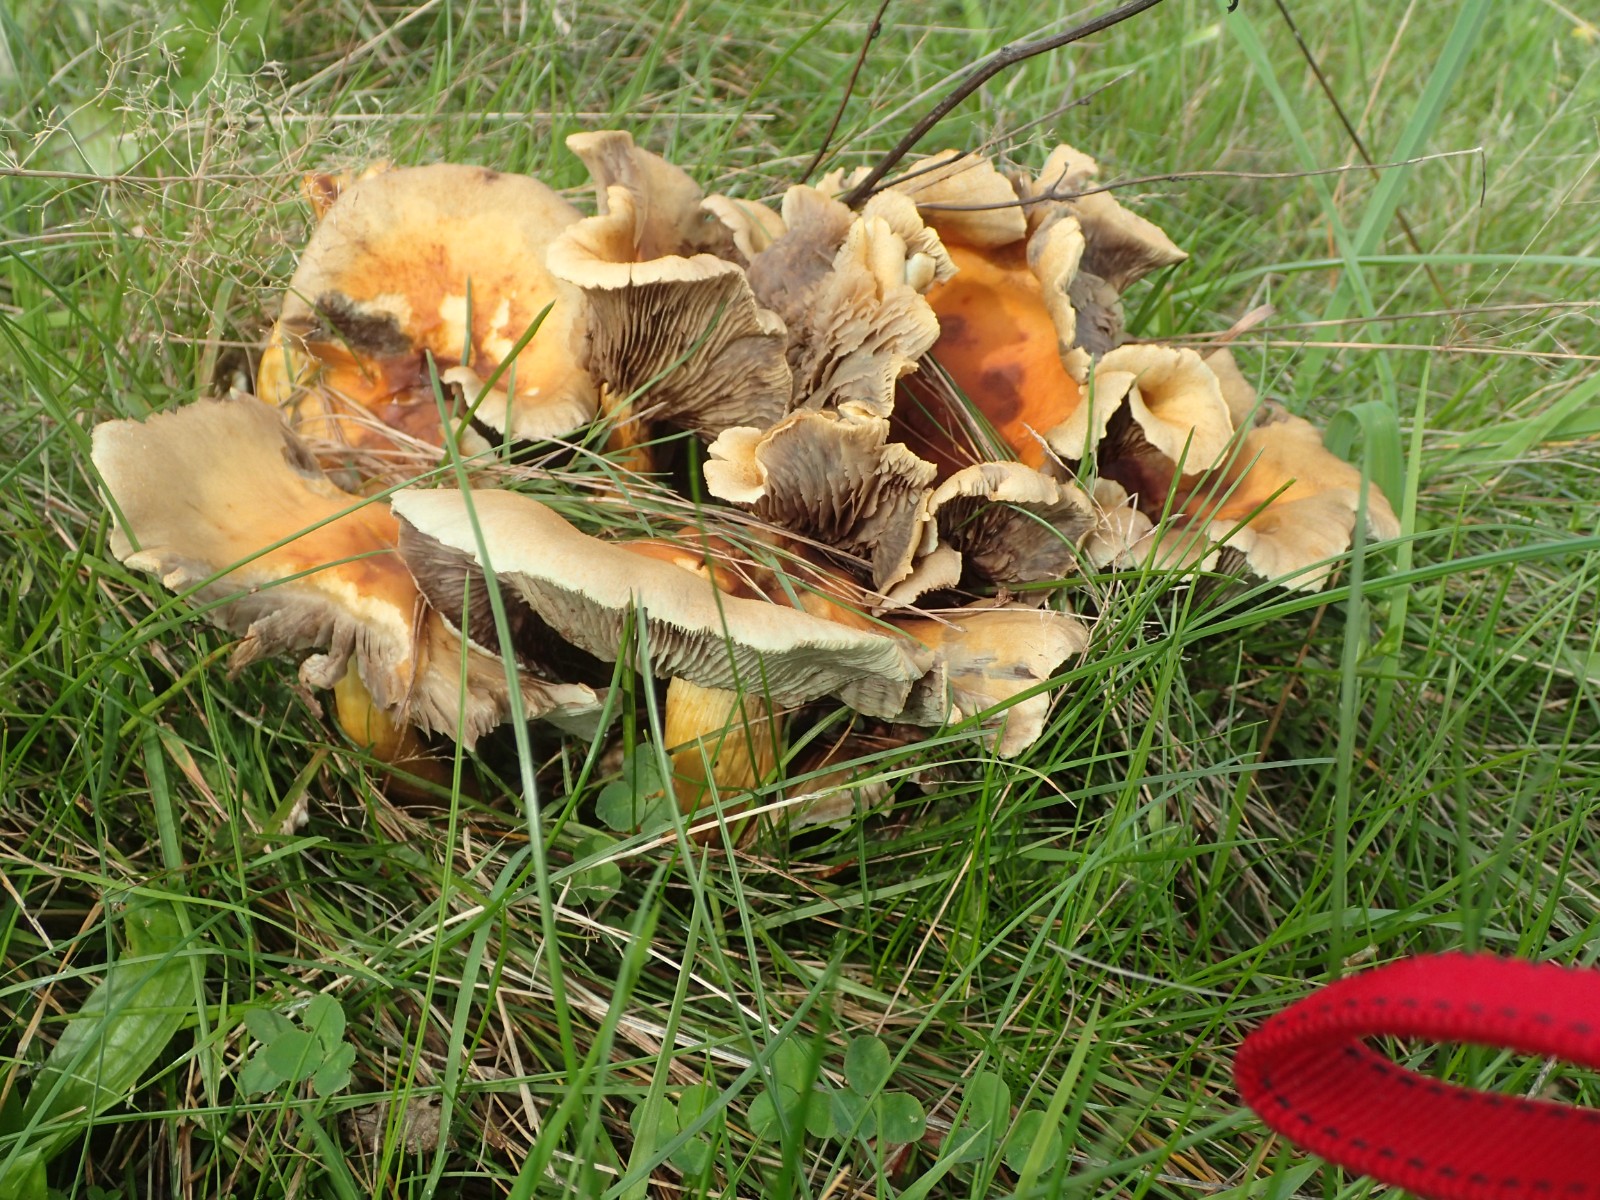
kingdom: Fungi
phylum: Basidiomycota
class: Agaricomycetes
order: Agaricales
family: Strophariaceae
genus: Hypholoma
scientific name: Hypholoma fasciculare
